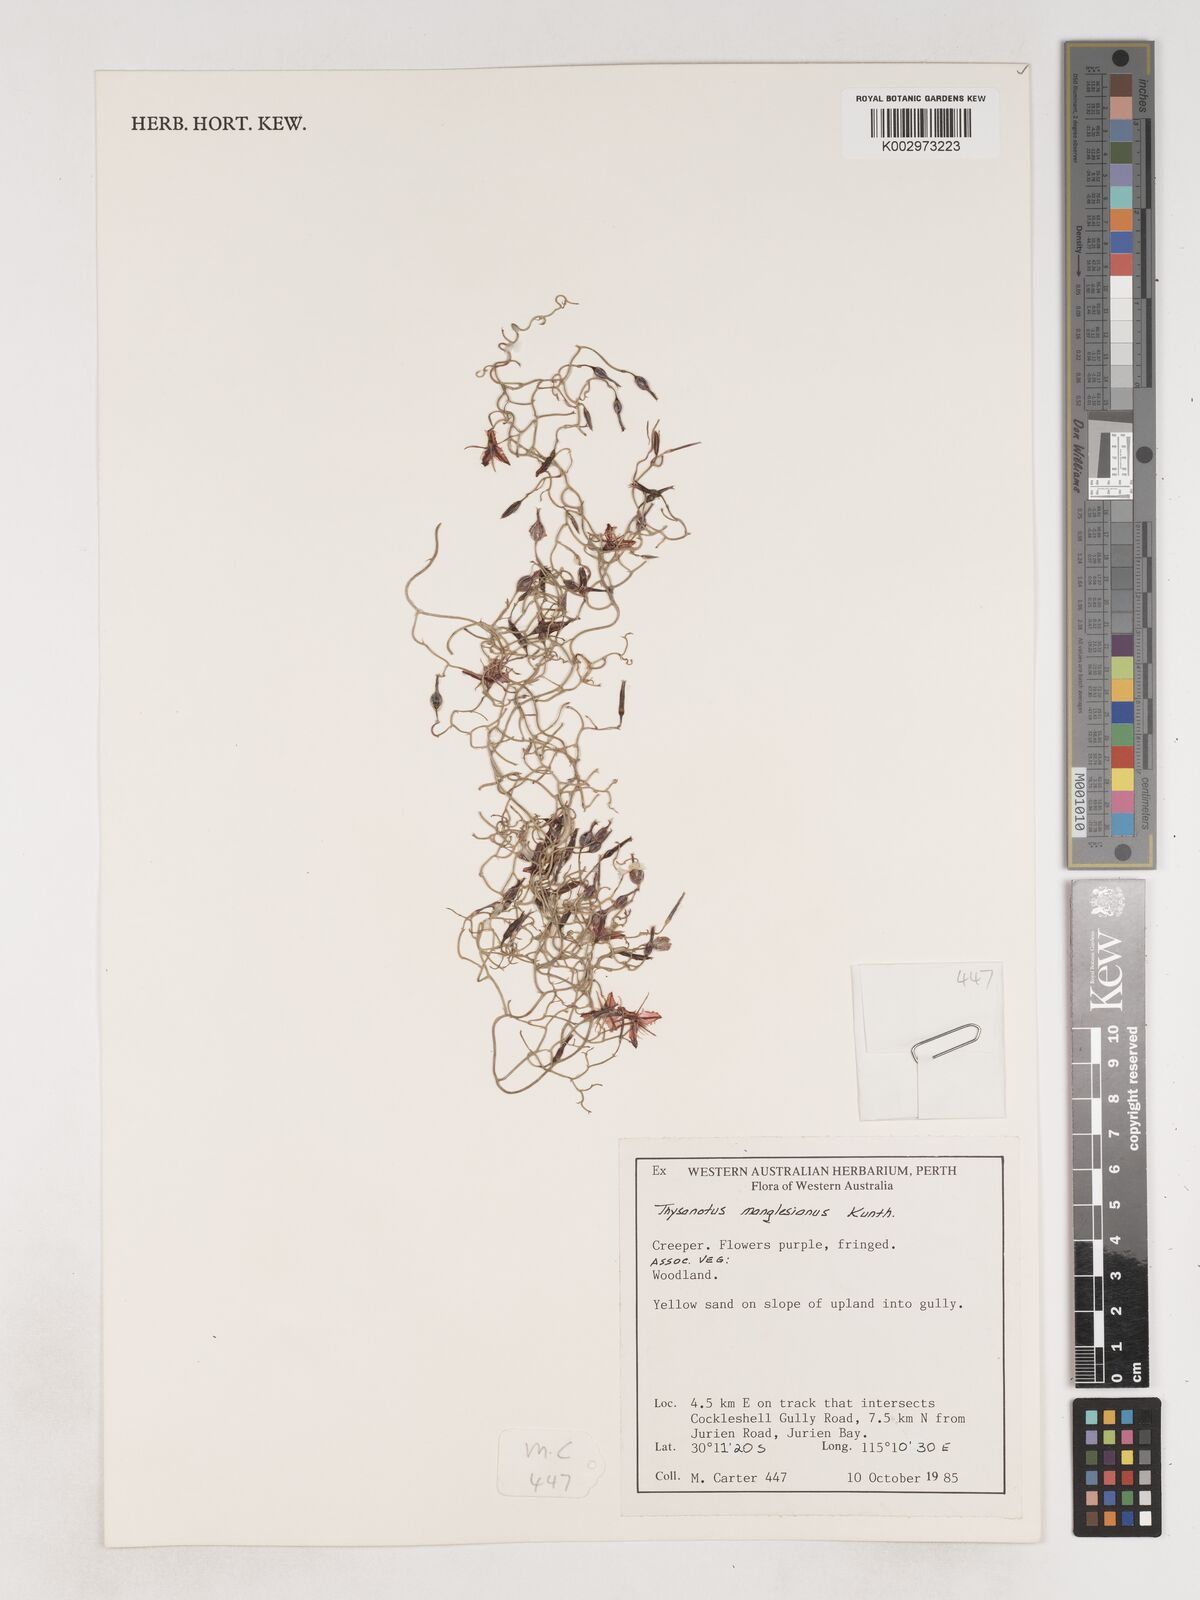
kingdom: Plantae
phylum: Tracheophyta
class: Liliopsida
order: Asparagales
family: Asparagaceae
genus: Thysanotus
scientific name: Thysanotus manglesianus
